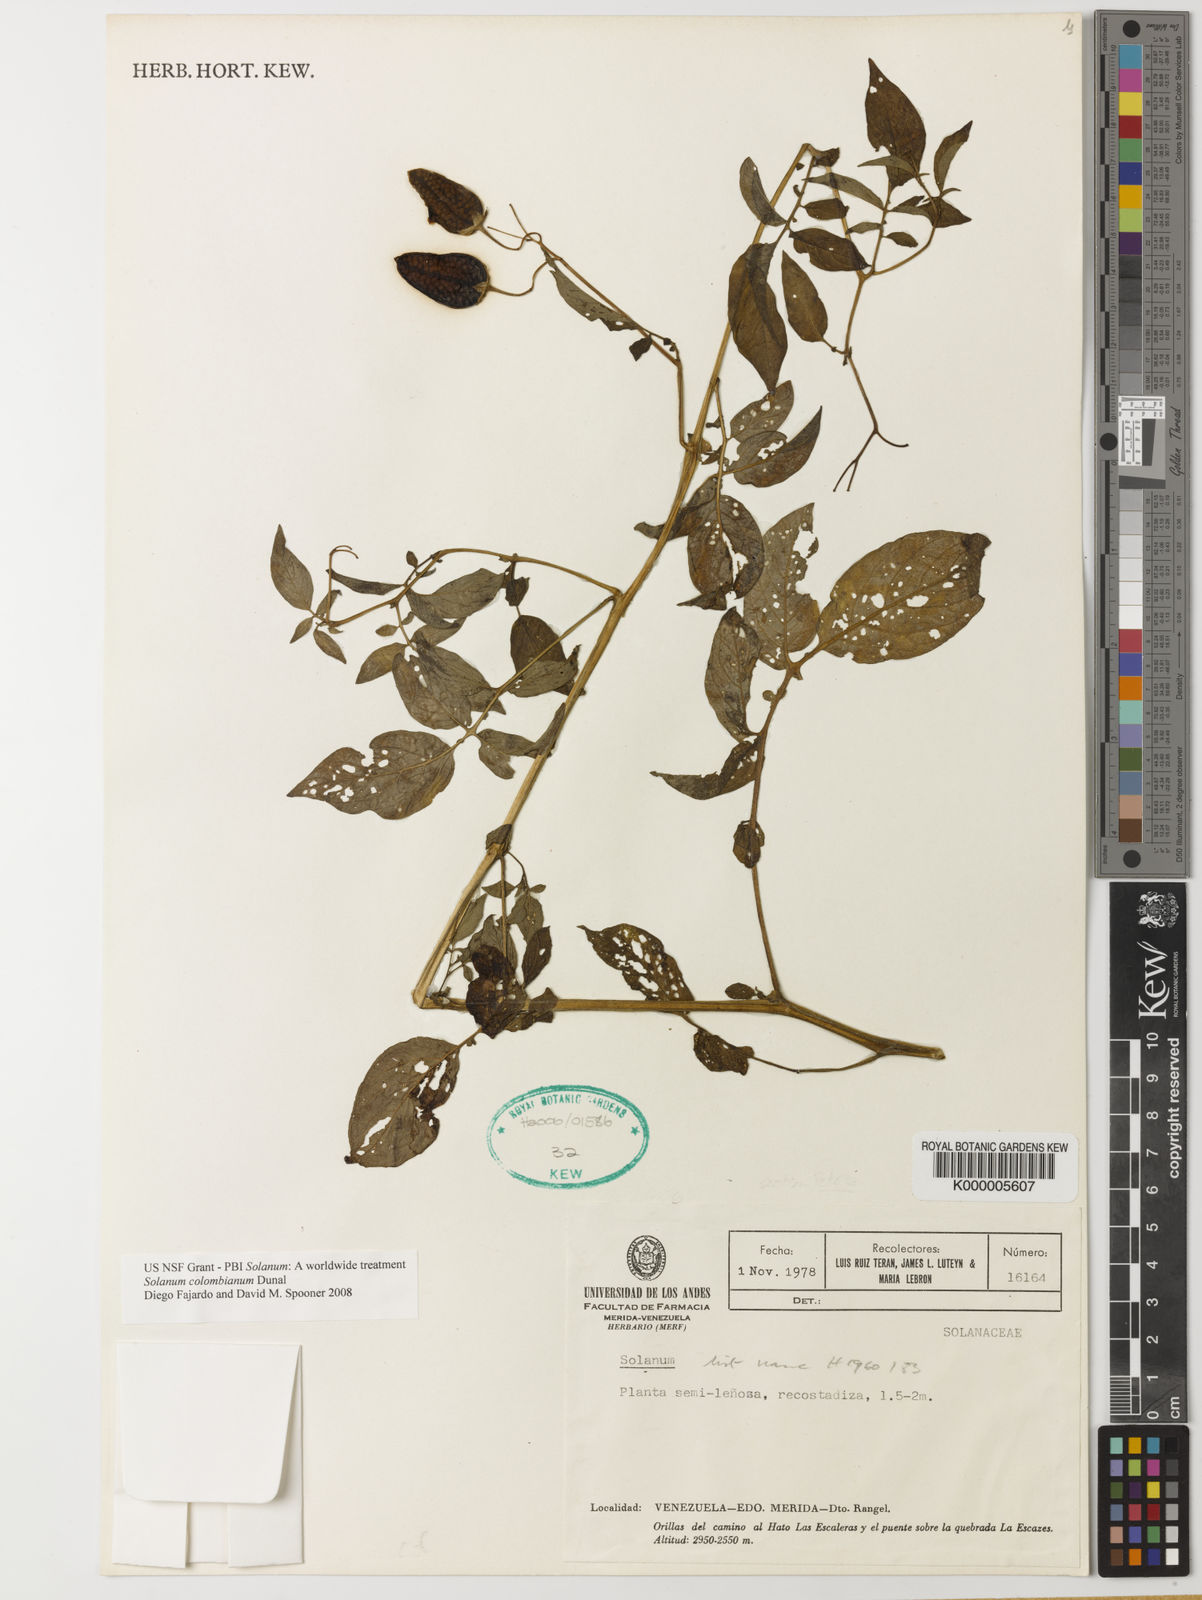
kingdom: Plantae
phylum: Tracheophyta
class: Magnoliopsida
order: Solanales
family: Solanaceae
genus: Solanum
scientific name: Solanum colombianum
